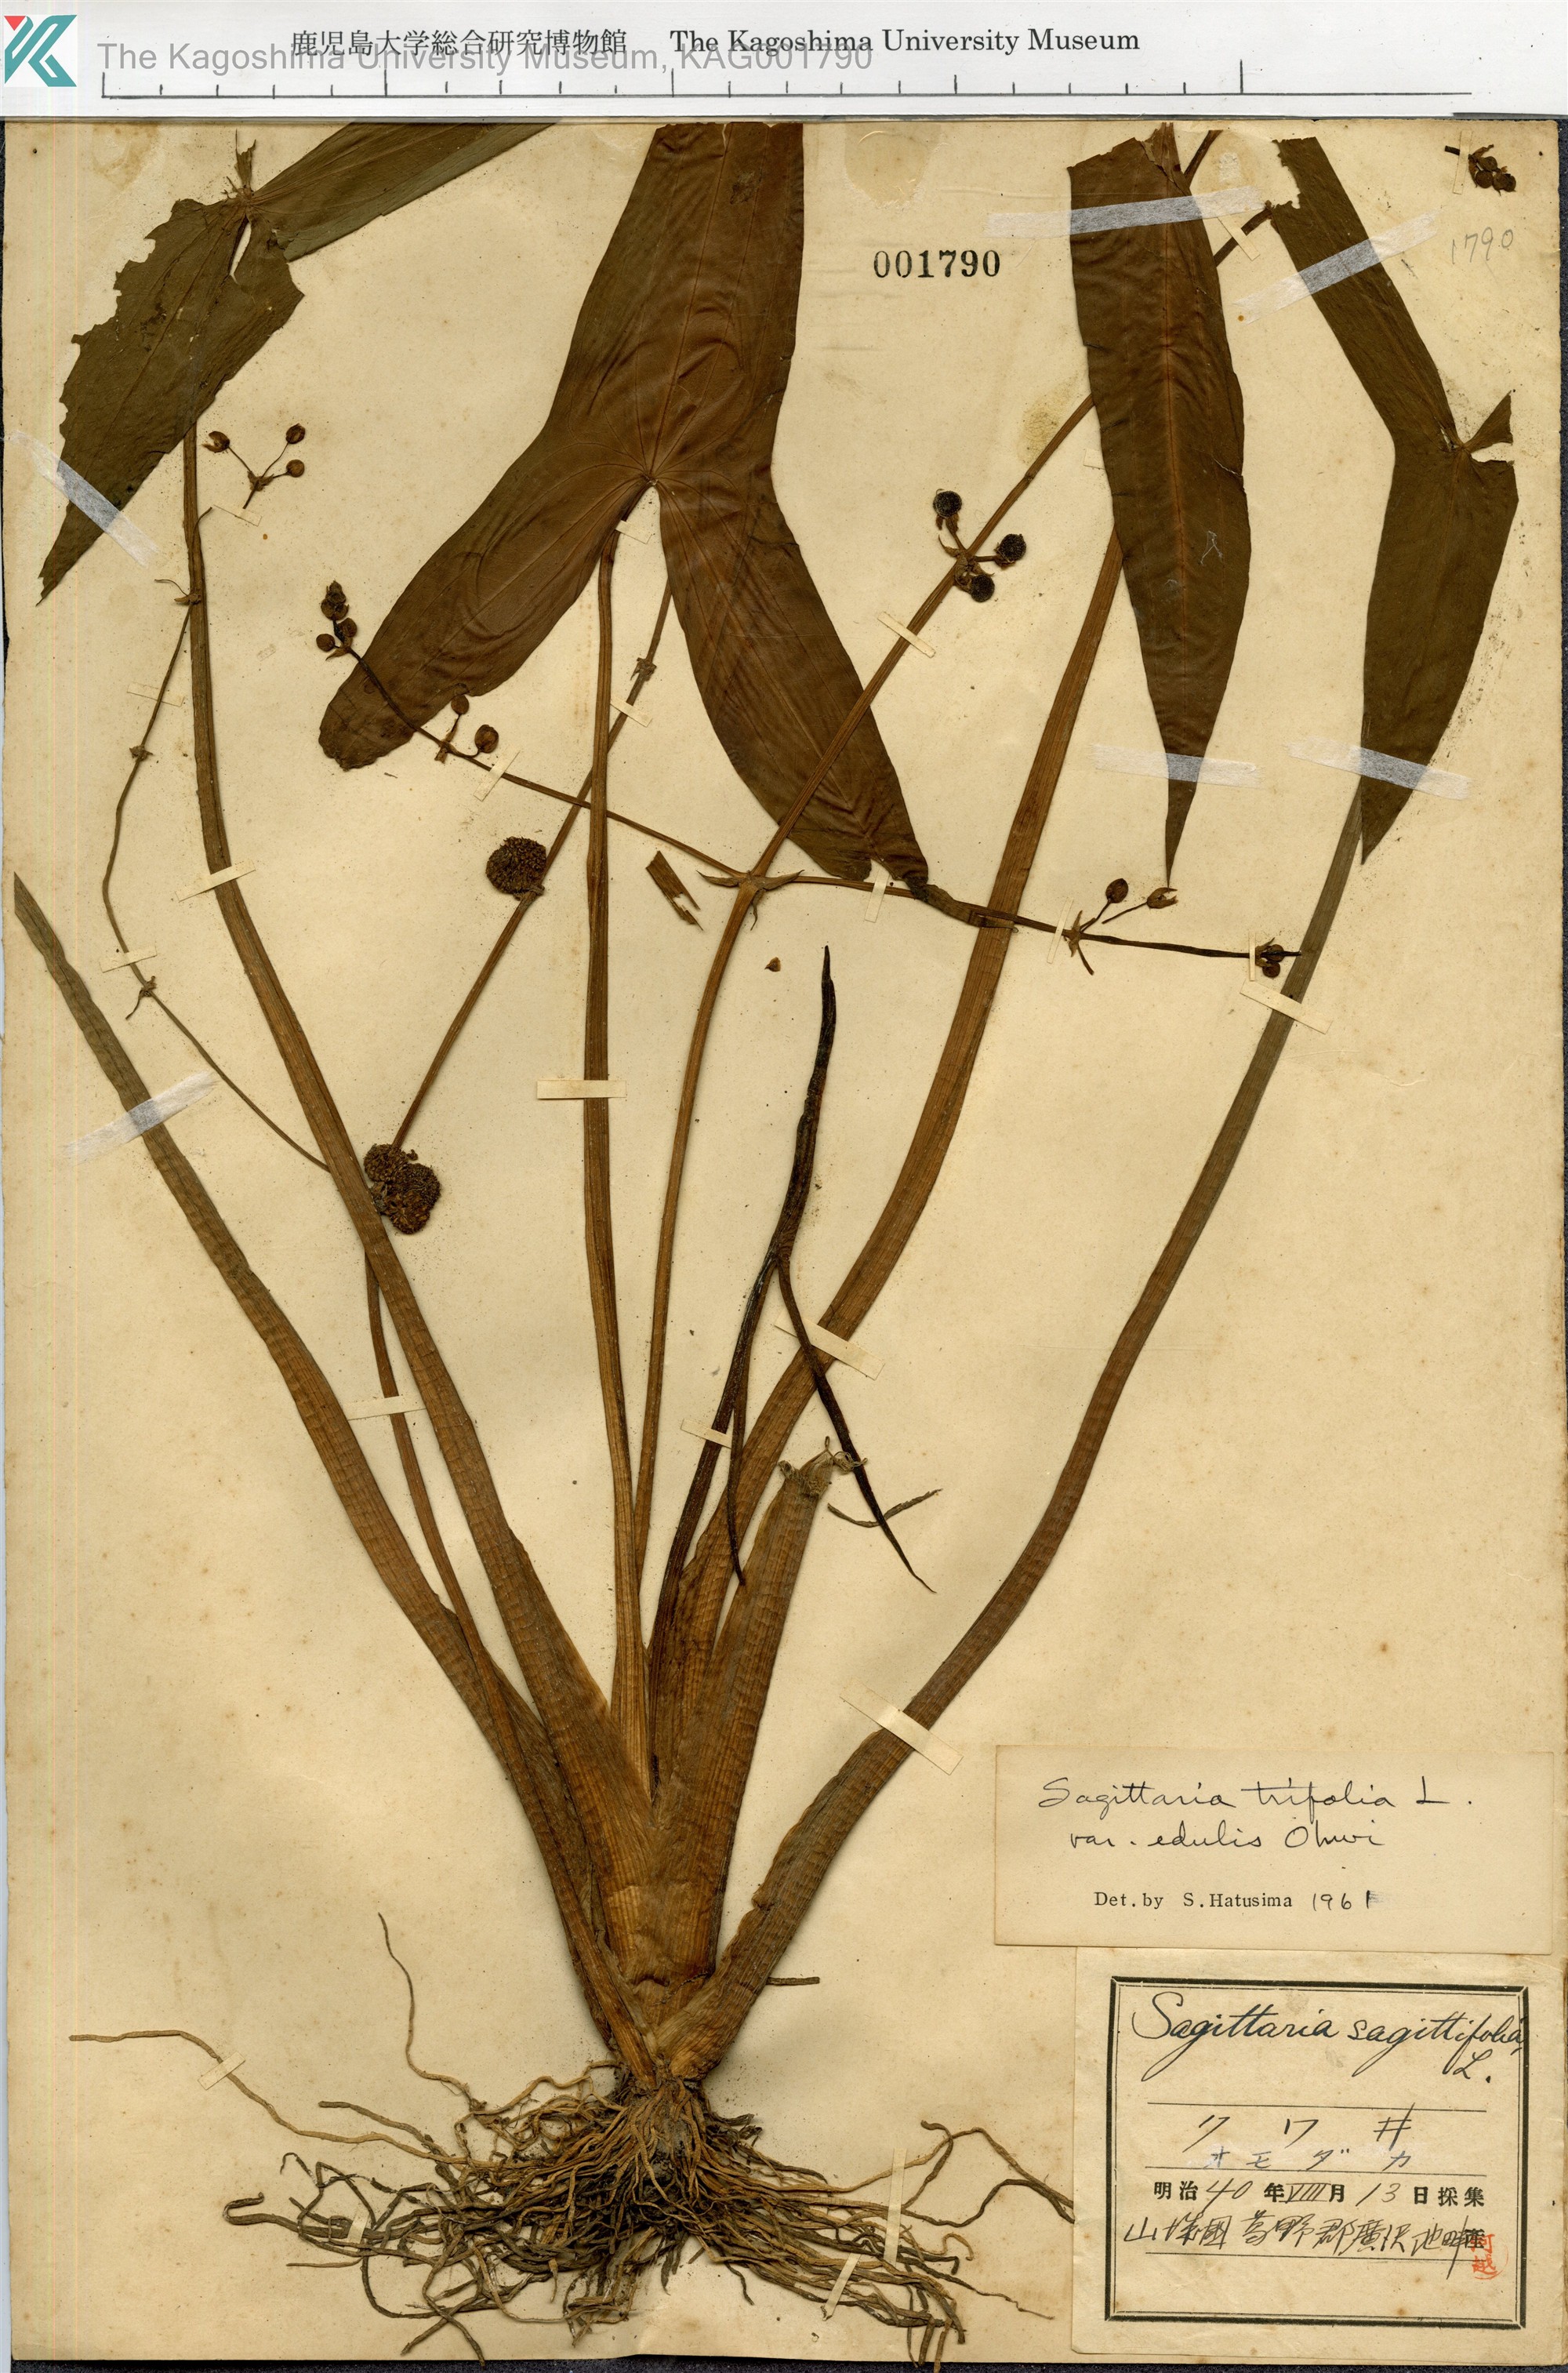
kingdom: Plantae
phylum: Tracheophyta
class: Liliopsida
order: Alismatales
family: Alismataceae
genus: Sagittaria
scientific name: Sagittaria trifolia
